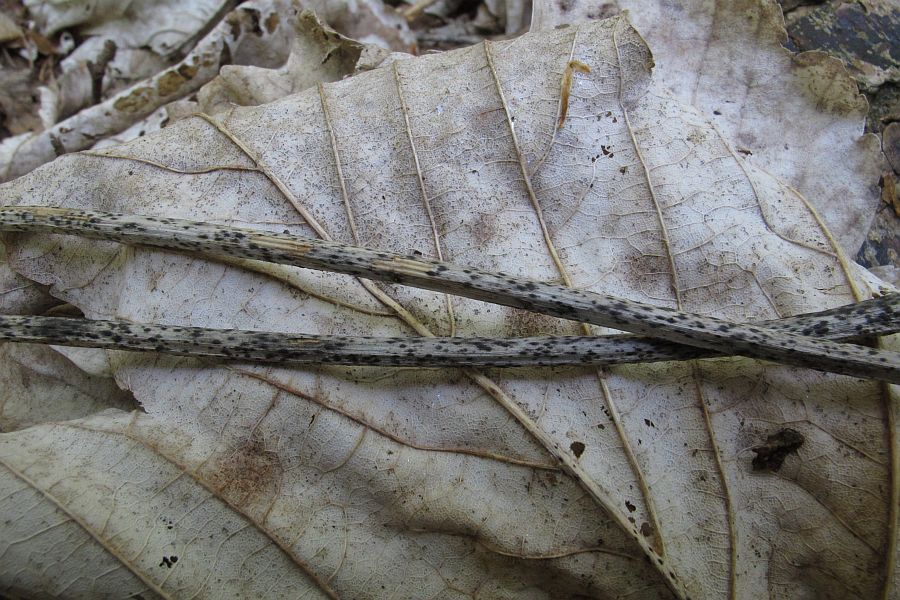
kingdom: Fungi
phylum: Ascomycota
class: Leotiomycetes
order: Helotiales
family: Ploettnerulaceae
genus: Pyrenopeziza
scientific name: Pyrenopeziza petiolaris
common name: ahorn-kerneskive
